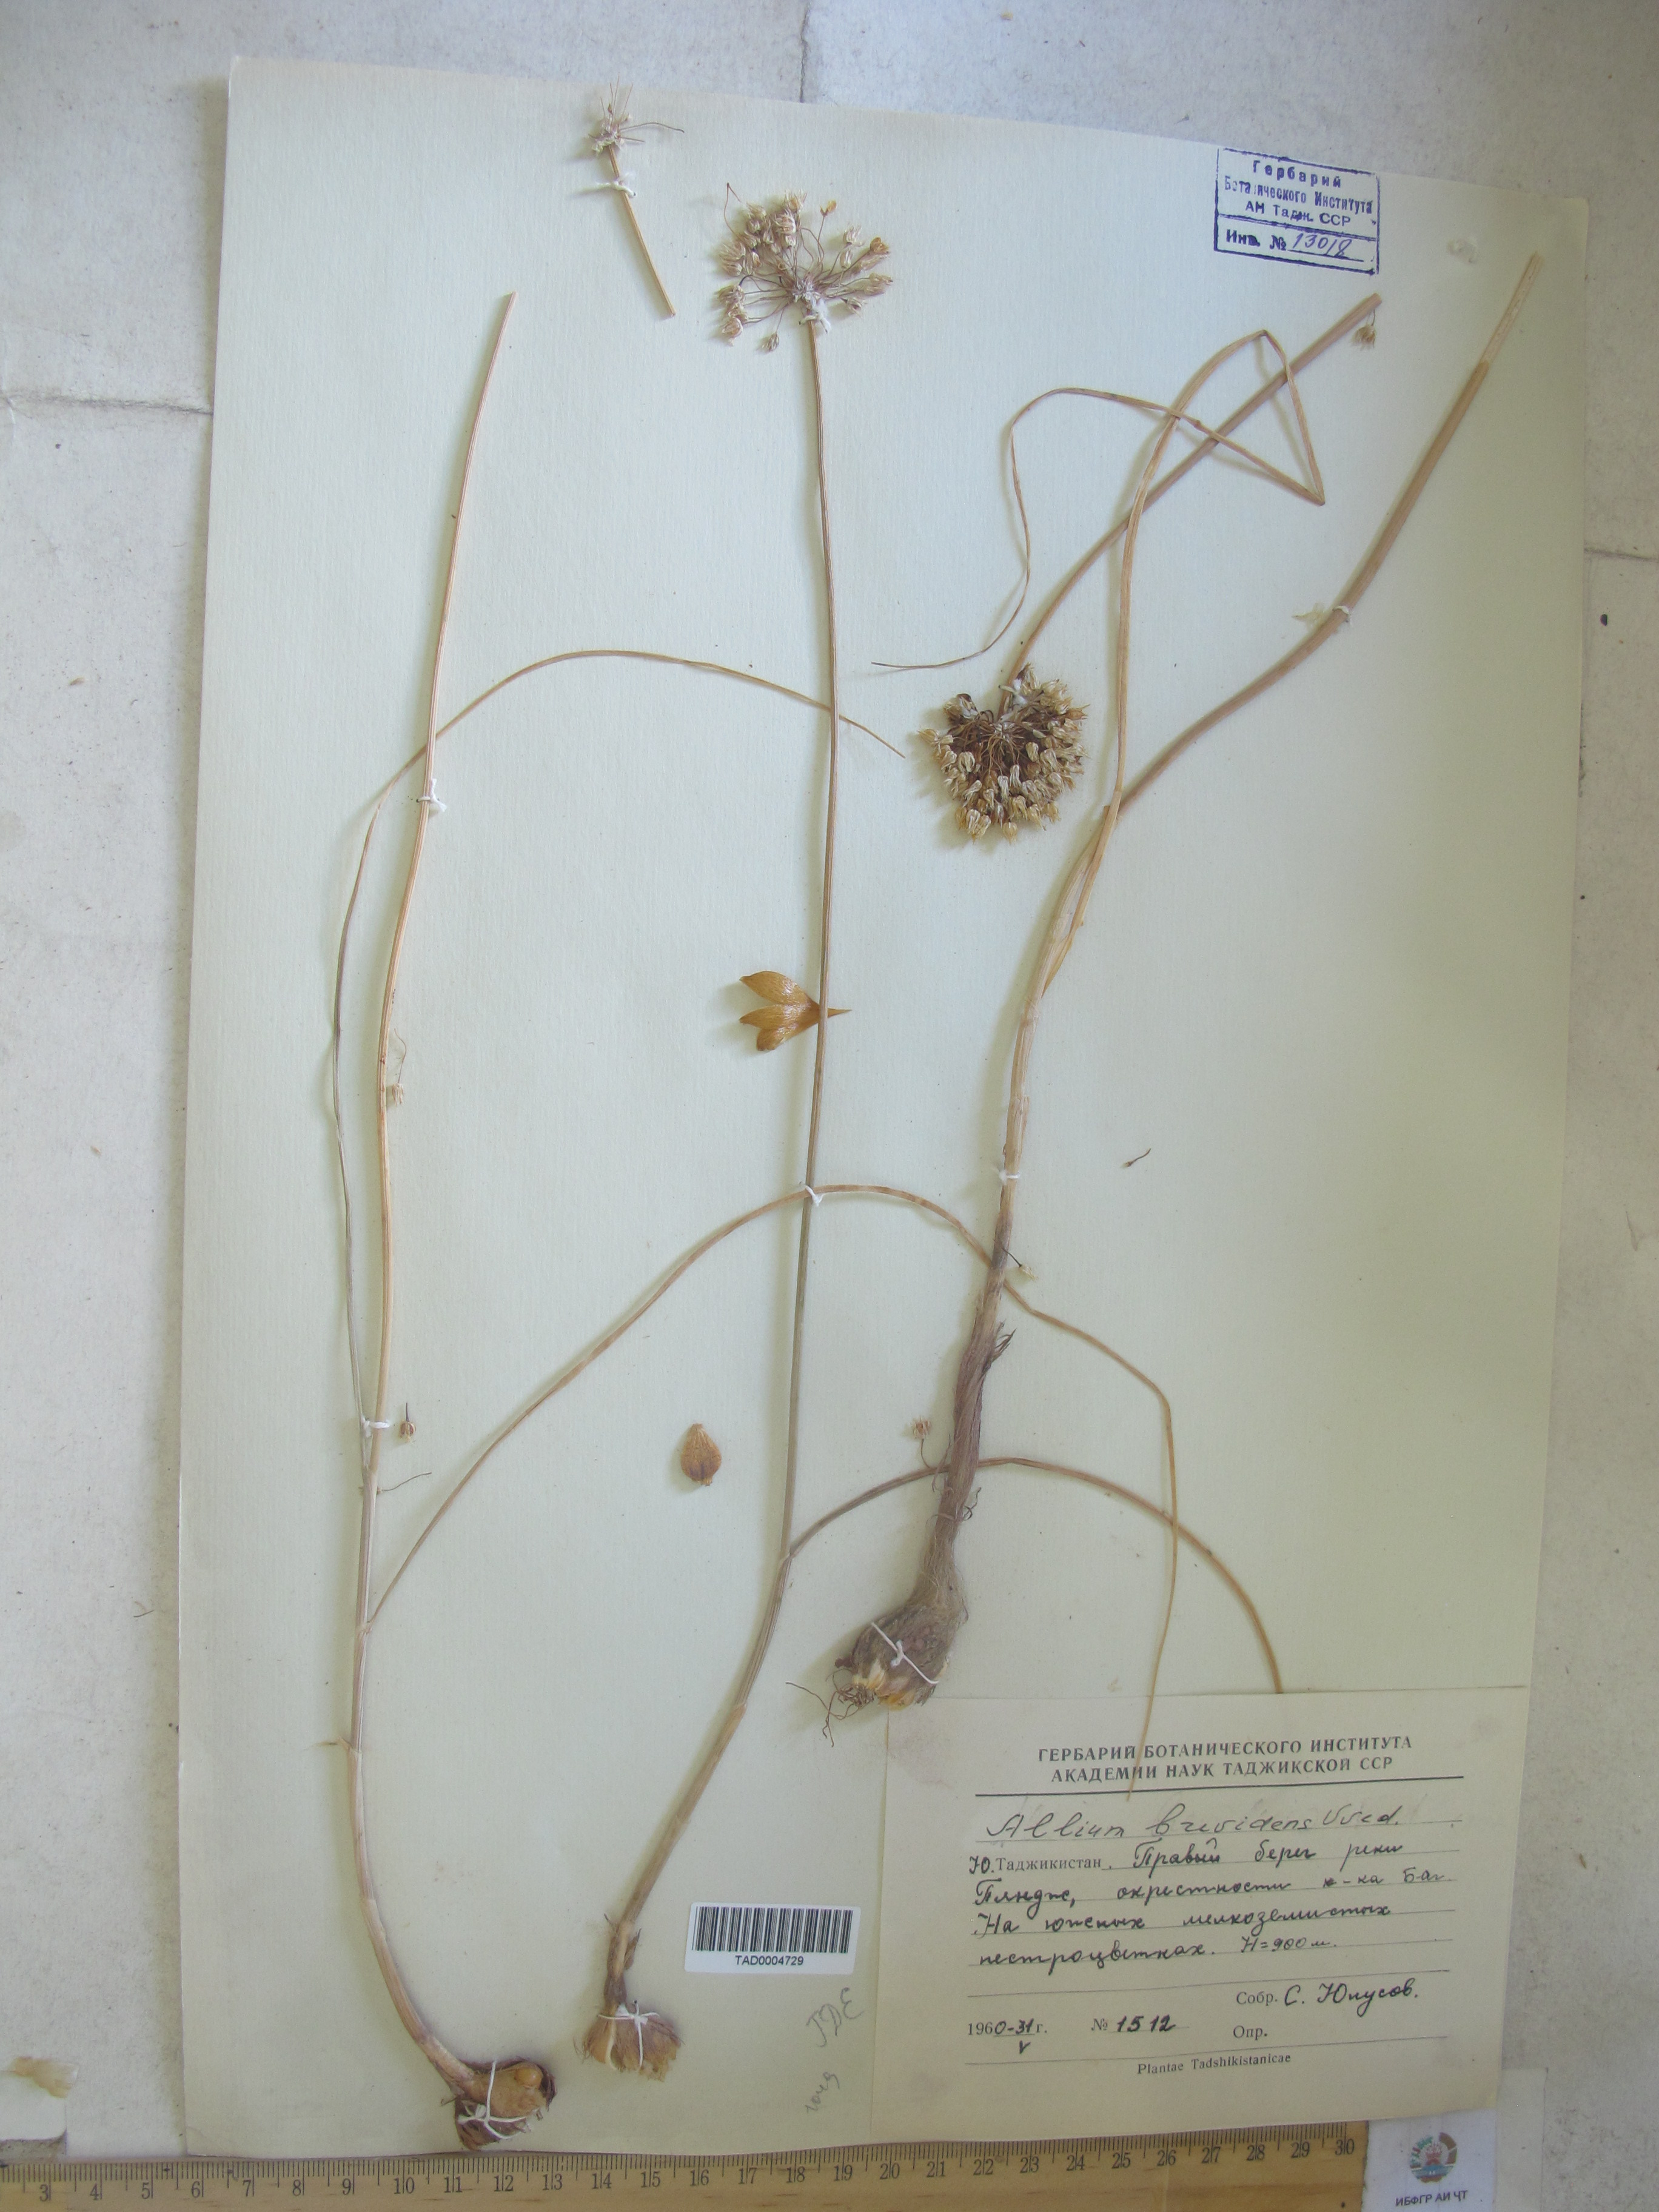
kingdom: Plantae
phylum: Tracheophyta
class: Liliopsida
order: Asparagales
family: Amaryllidaceae
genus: Allium
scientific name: Allium brevidens
